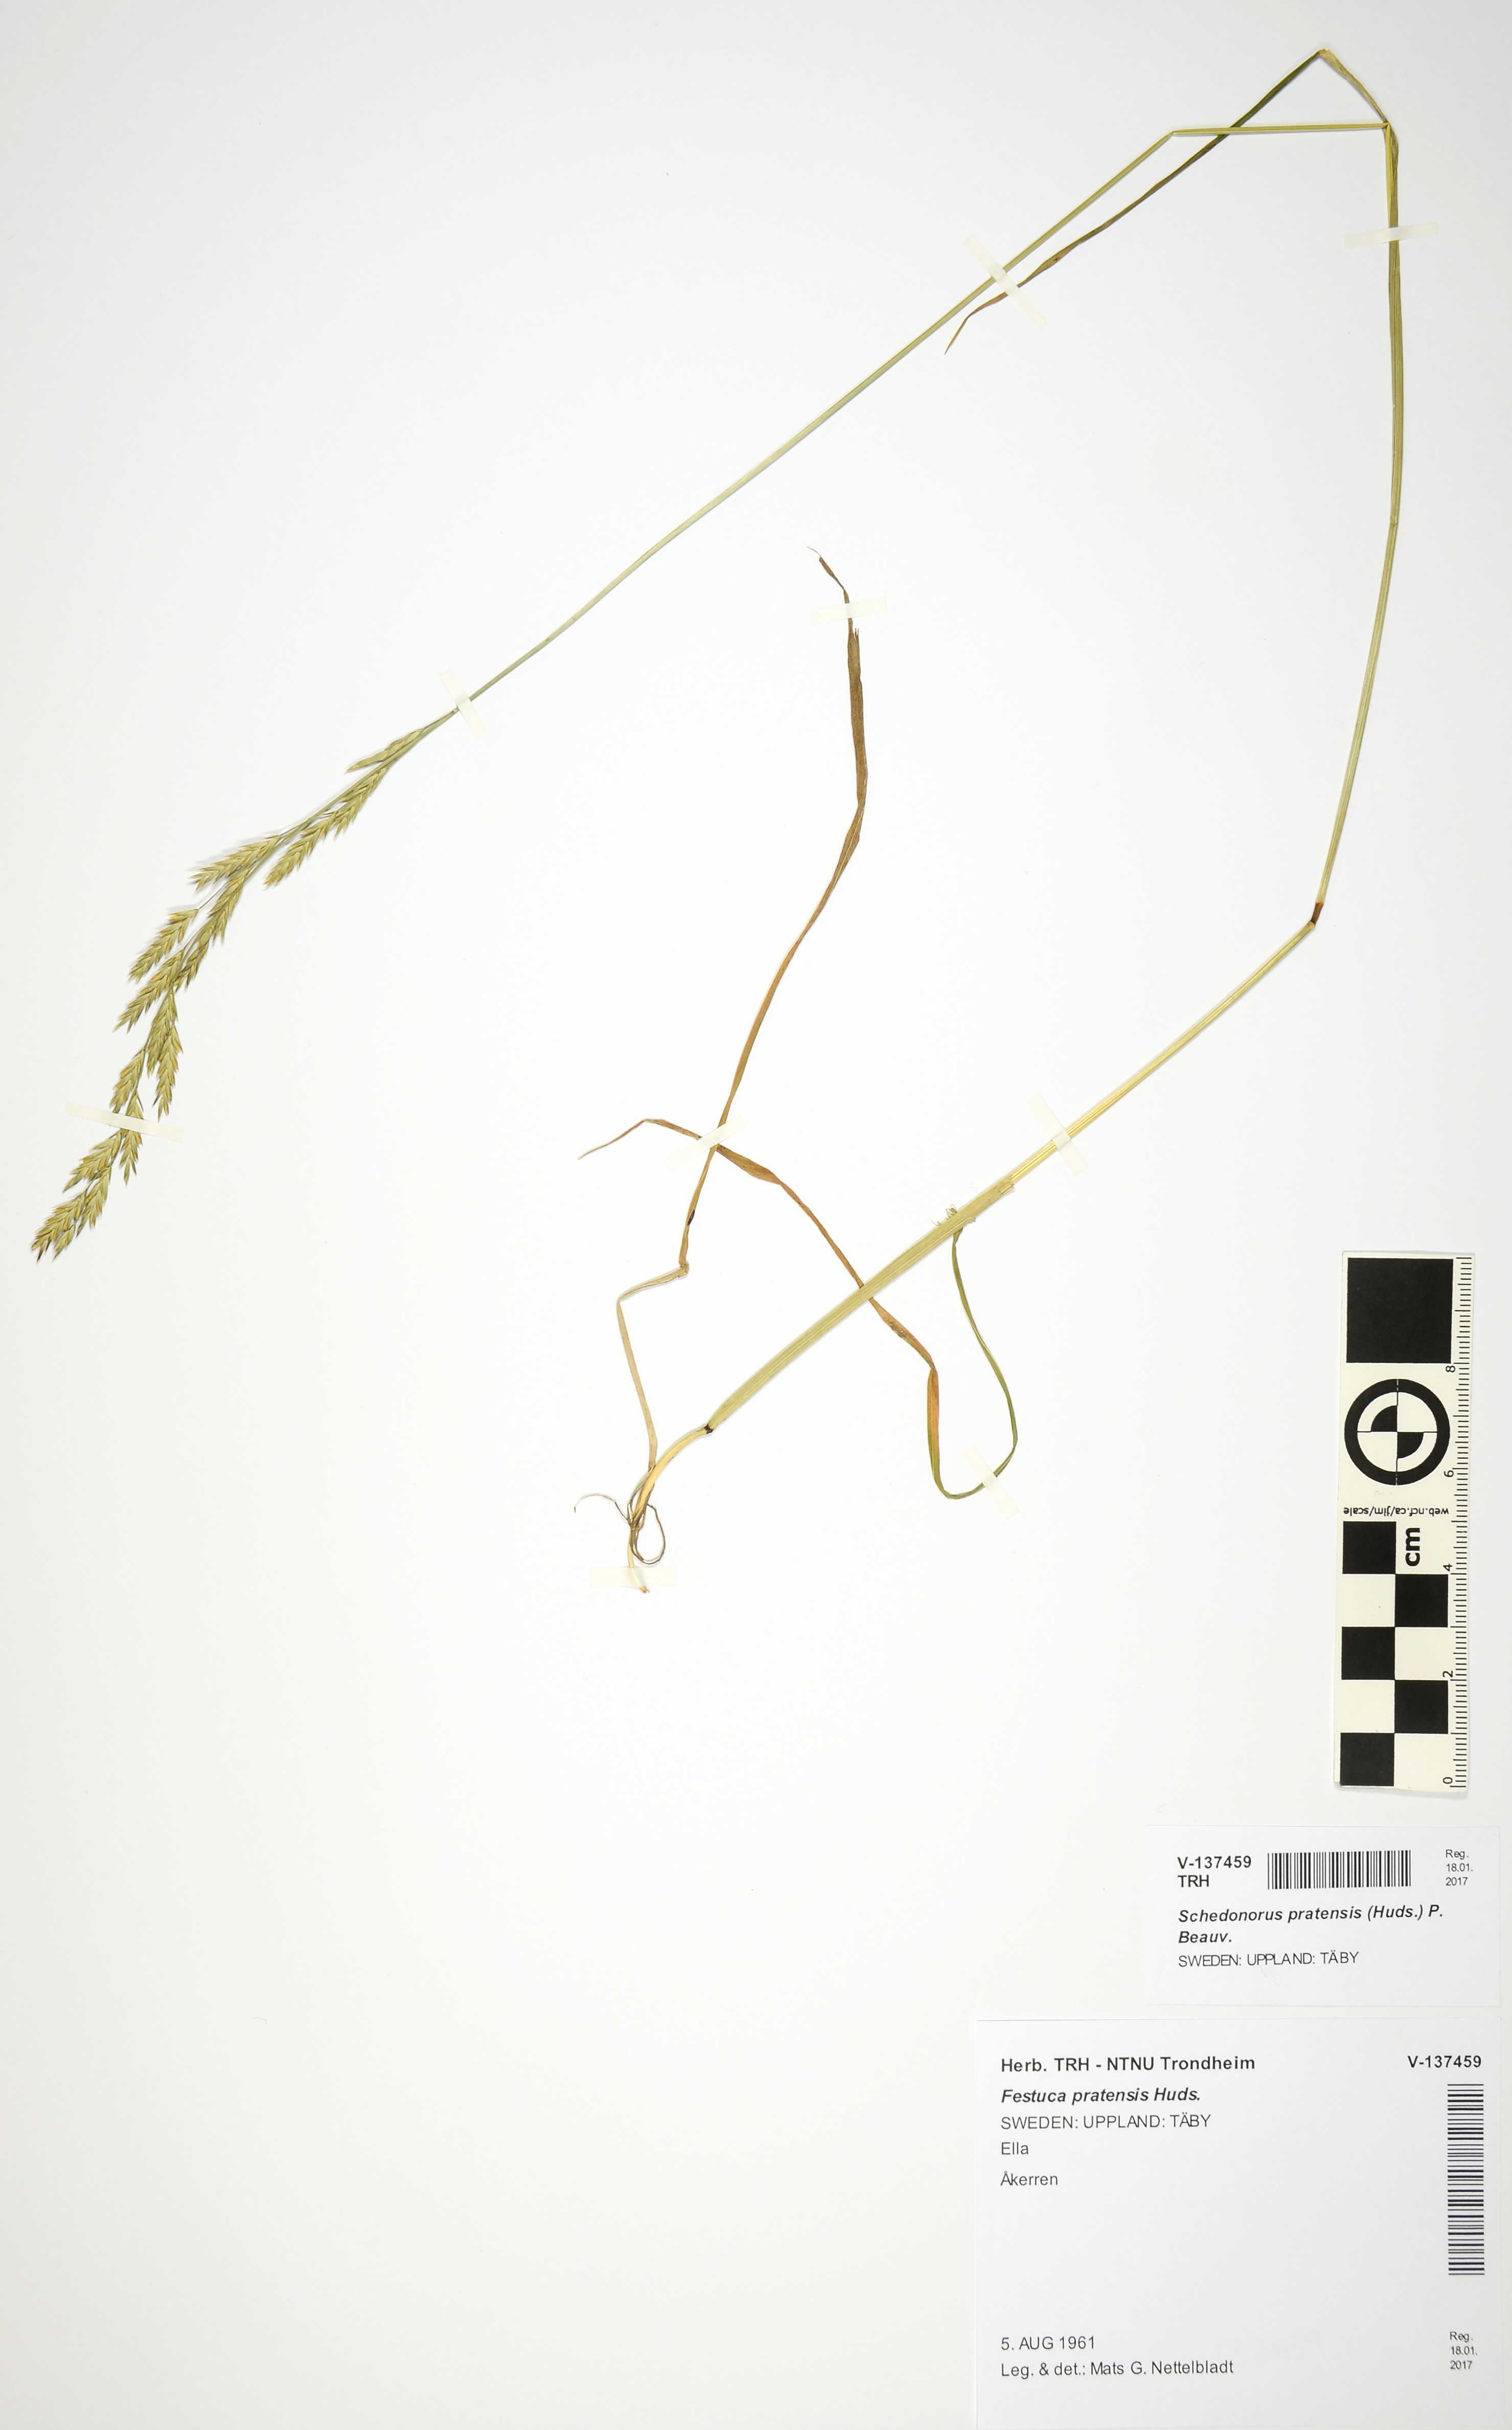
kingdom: Plantae
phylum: Tracheophyta
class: Liliopsida
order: Poales
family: Poaceae
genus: Lolium
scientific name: Lolium pratense
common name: Dover grass
